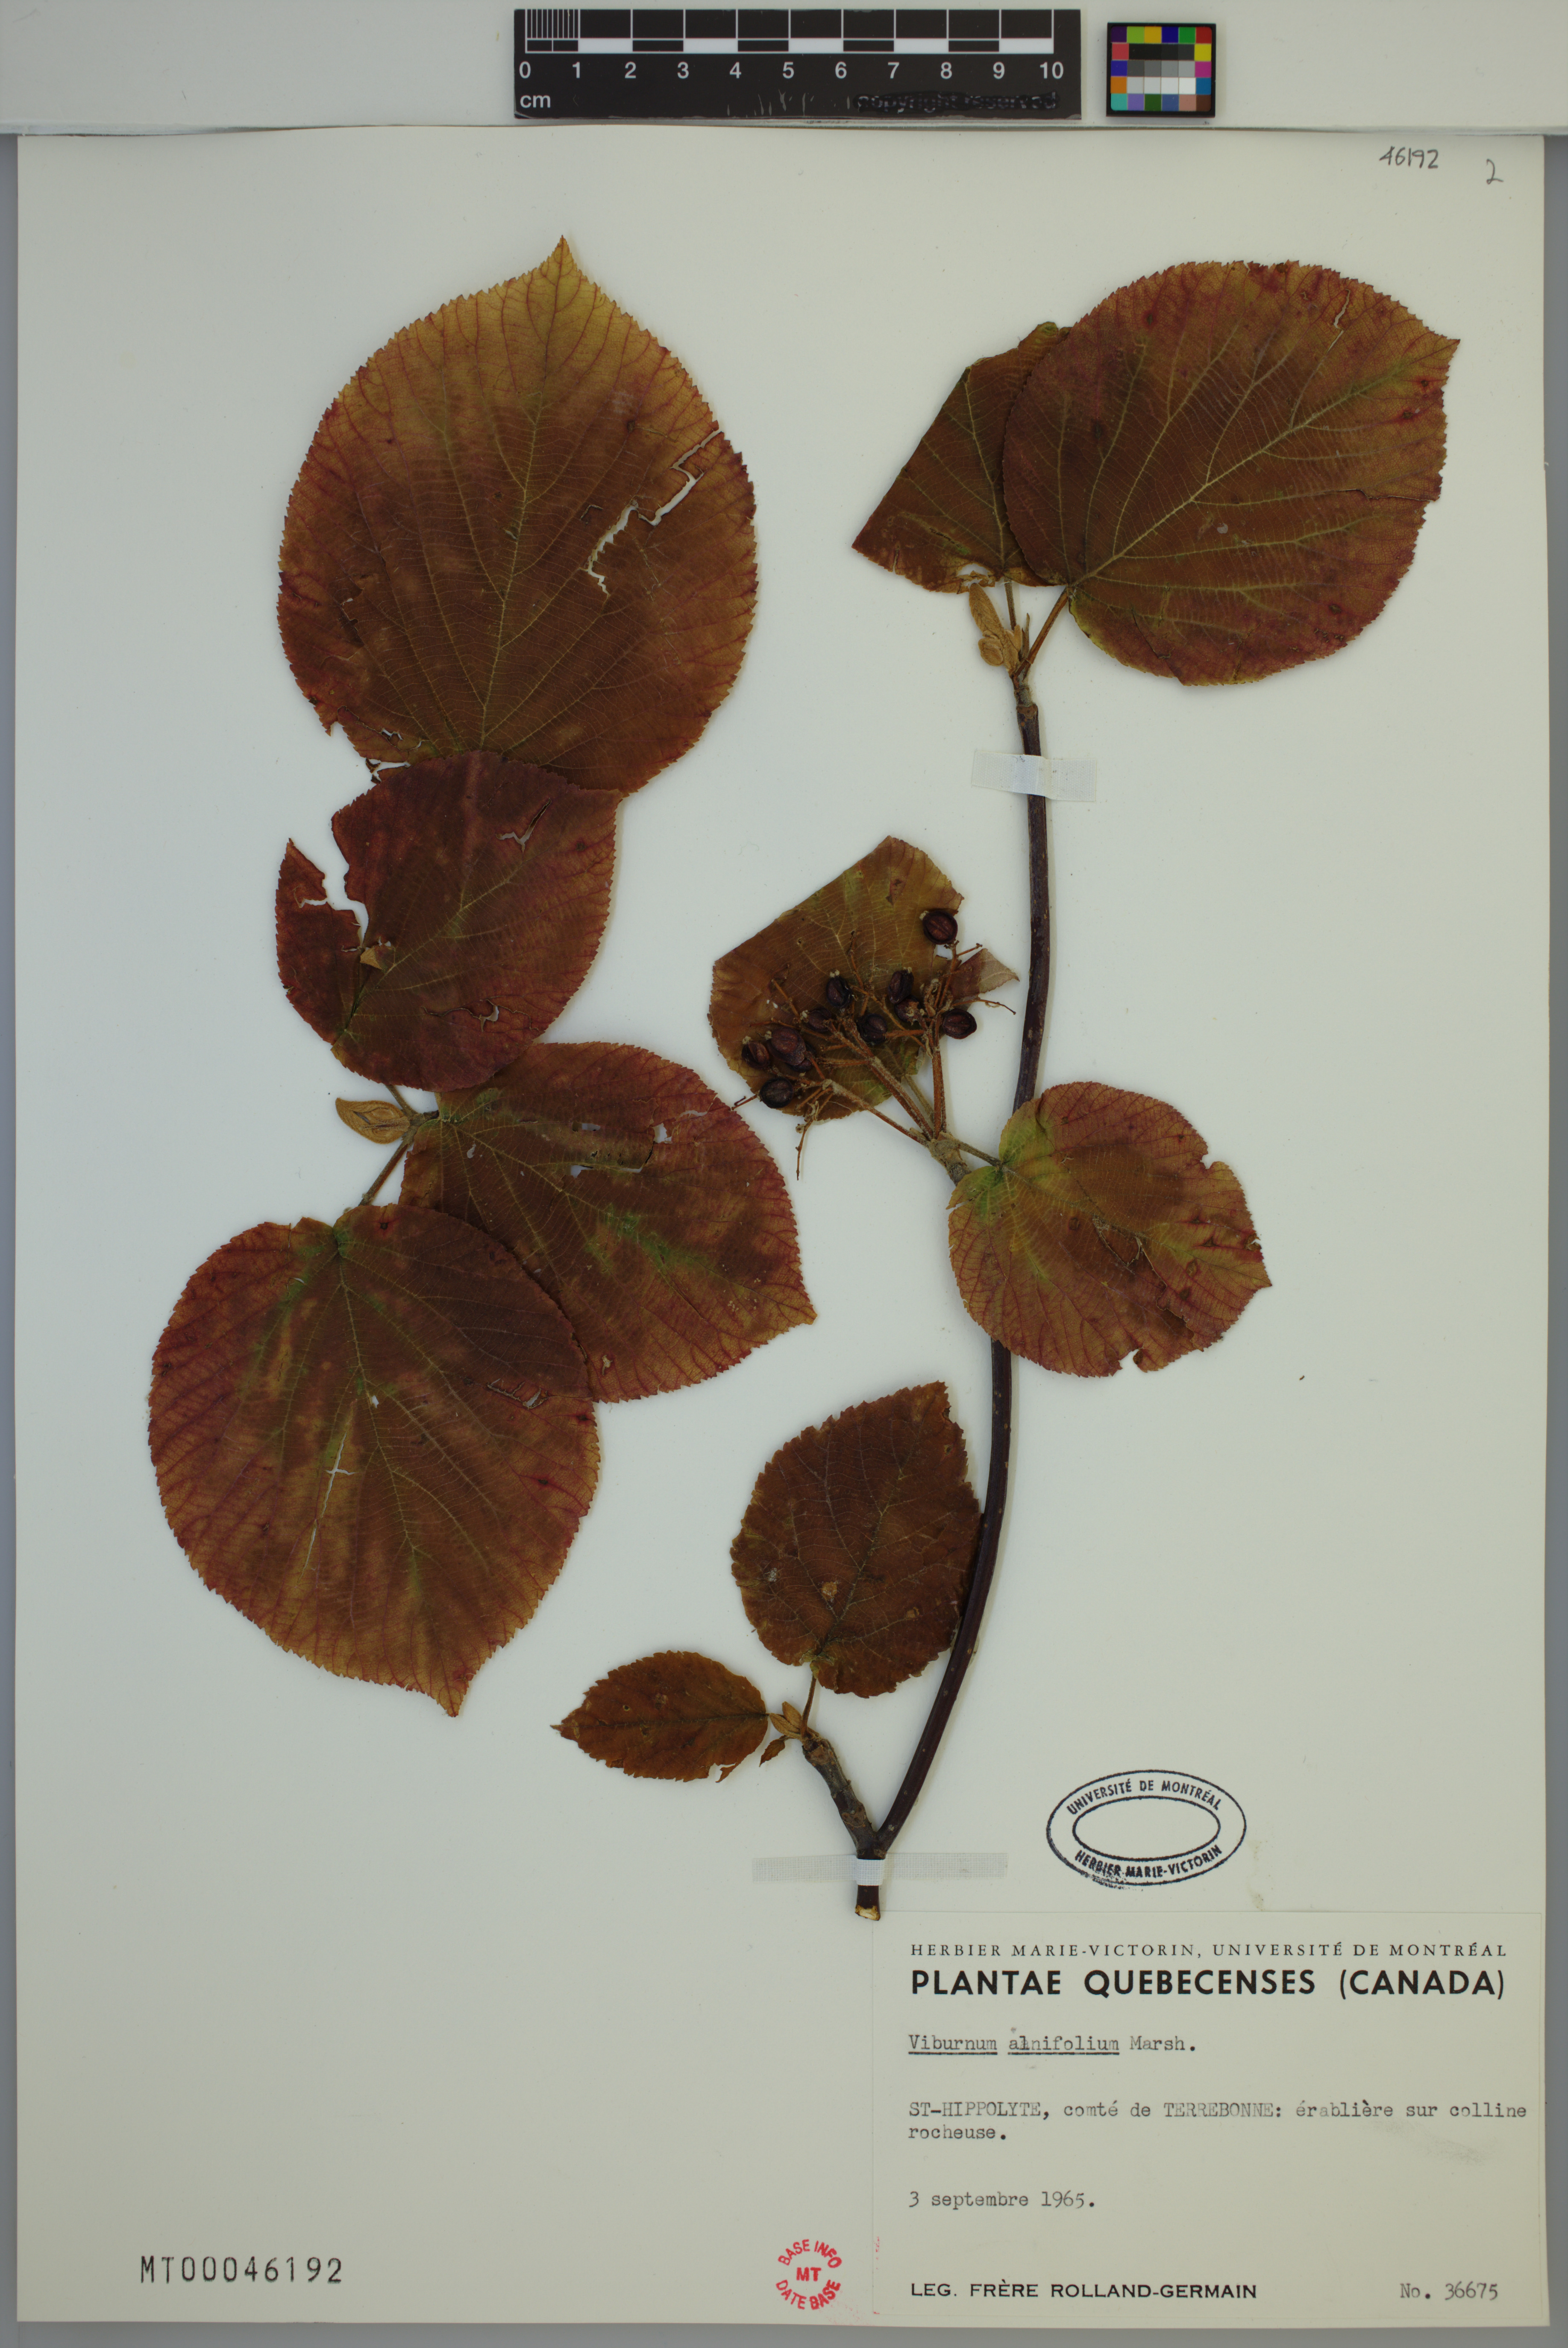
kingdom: Plantae
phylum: Tracheophyta
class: Magnoliopsida
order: Dipsacales
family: Viburnaceae
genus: Viburnum
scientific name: Viburnum lantanoides
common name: Hobblebush
